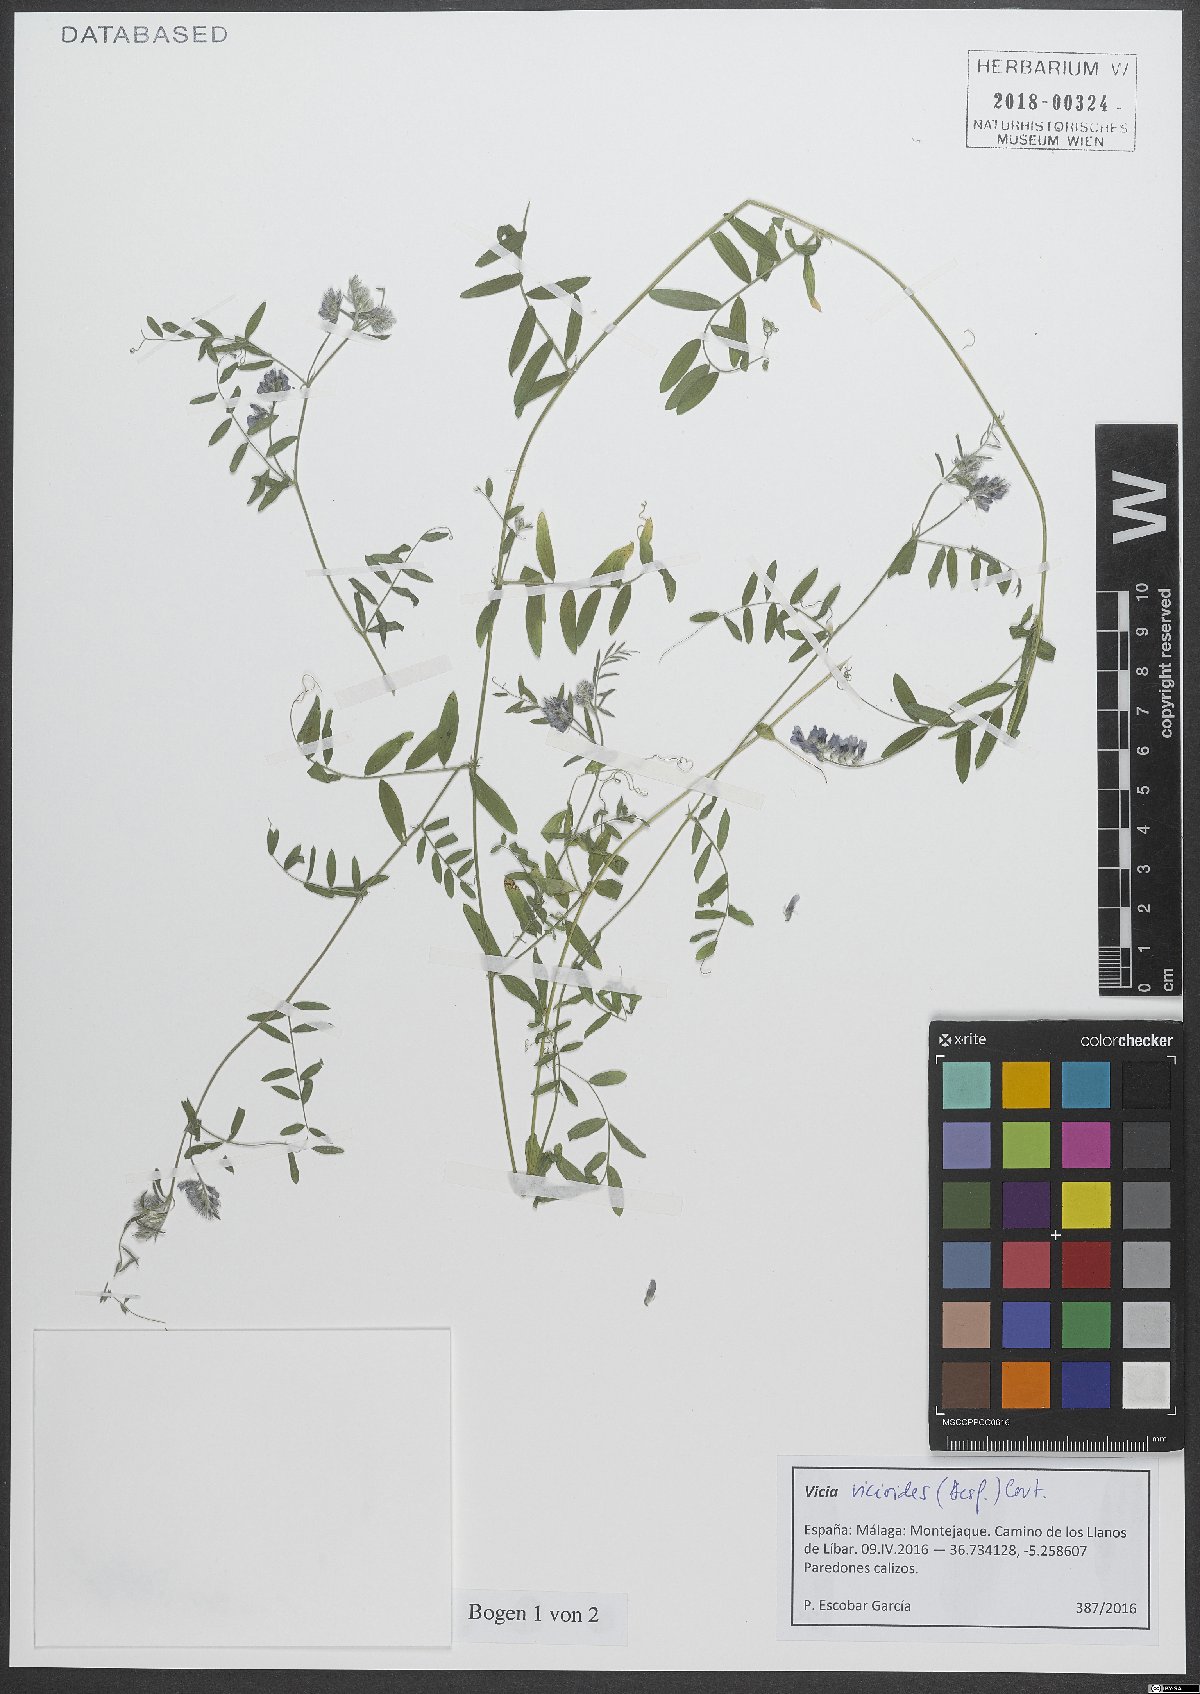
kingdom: Plantae
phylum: Tracheophyta
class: Magnoliopsida
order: Fabales
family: Fabaceae
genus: Vicia
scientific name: Vicia vicioides
